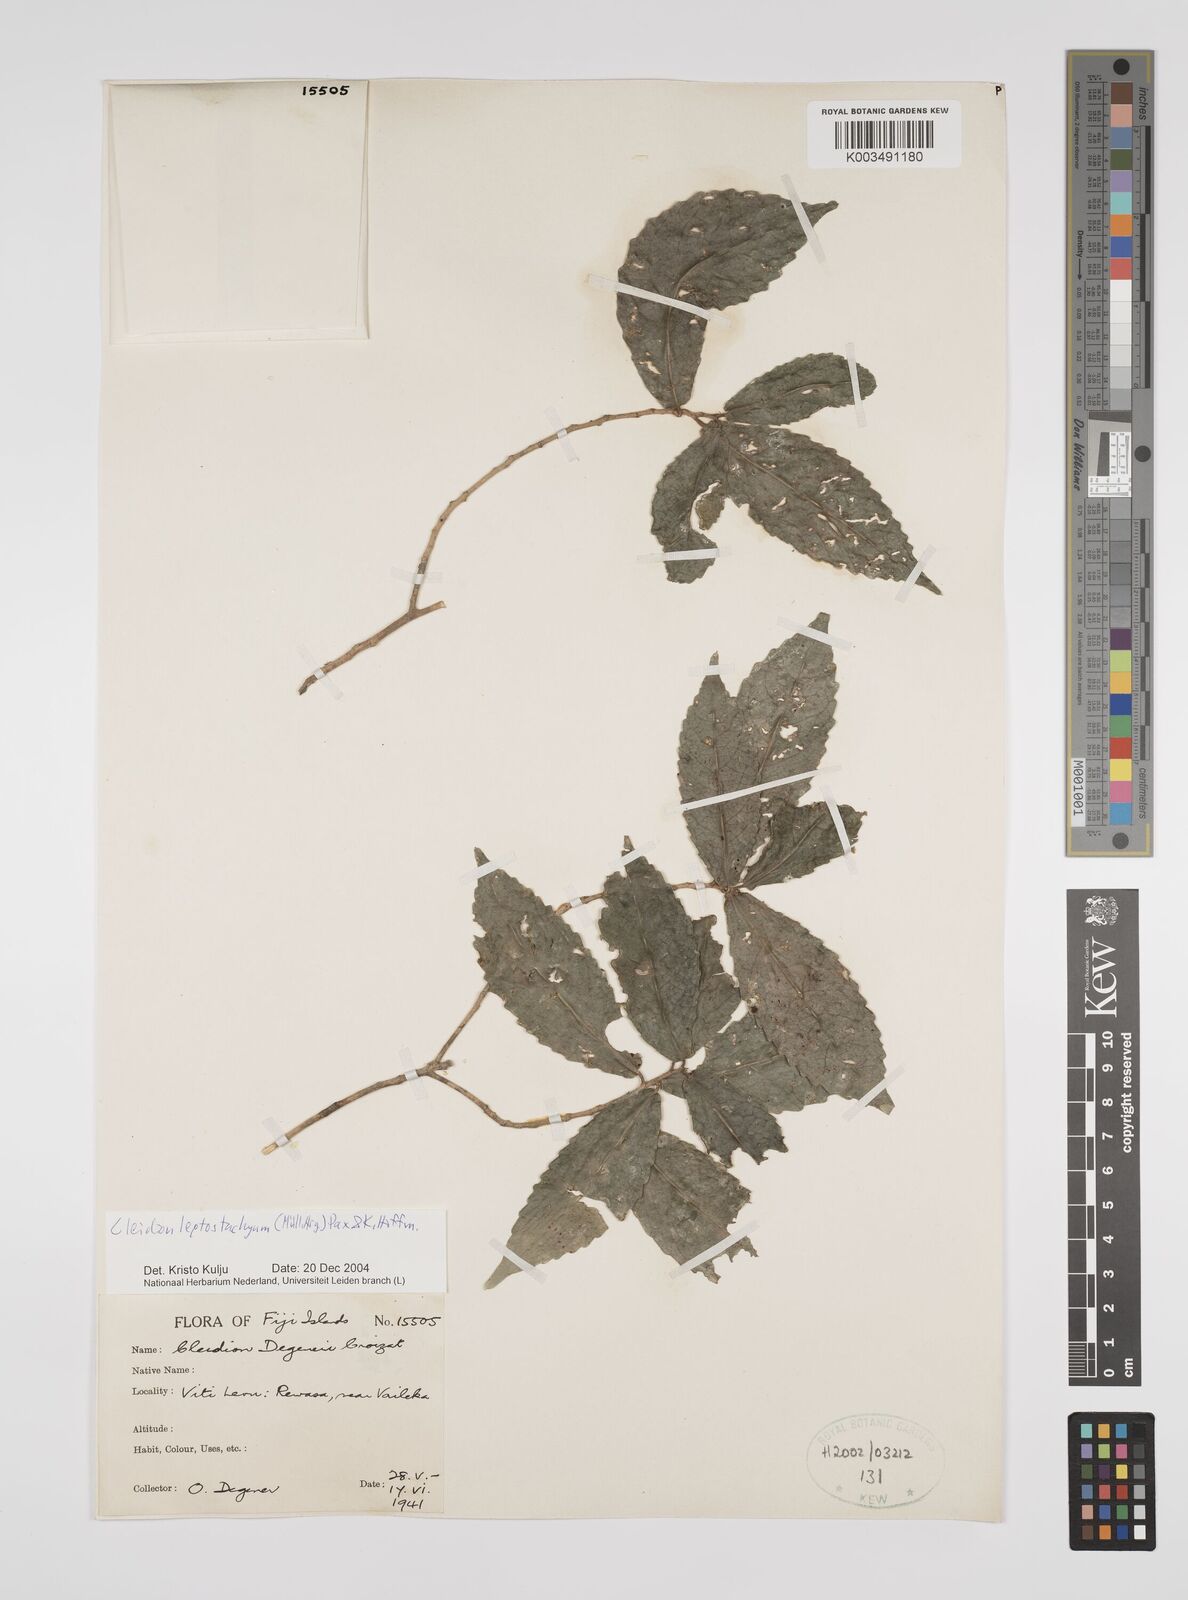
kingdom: Plantae
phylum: Tracheophyta
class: Magnoliopsida
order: Malpighiales
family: Euphorbiaceae
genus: Cleidion
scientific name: Cleidion leptostachyum
